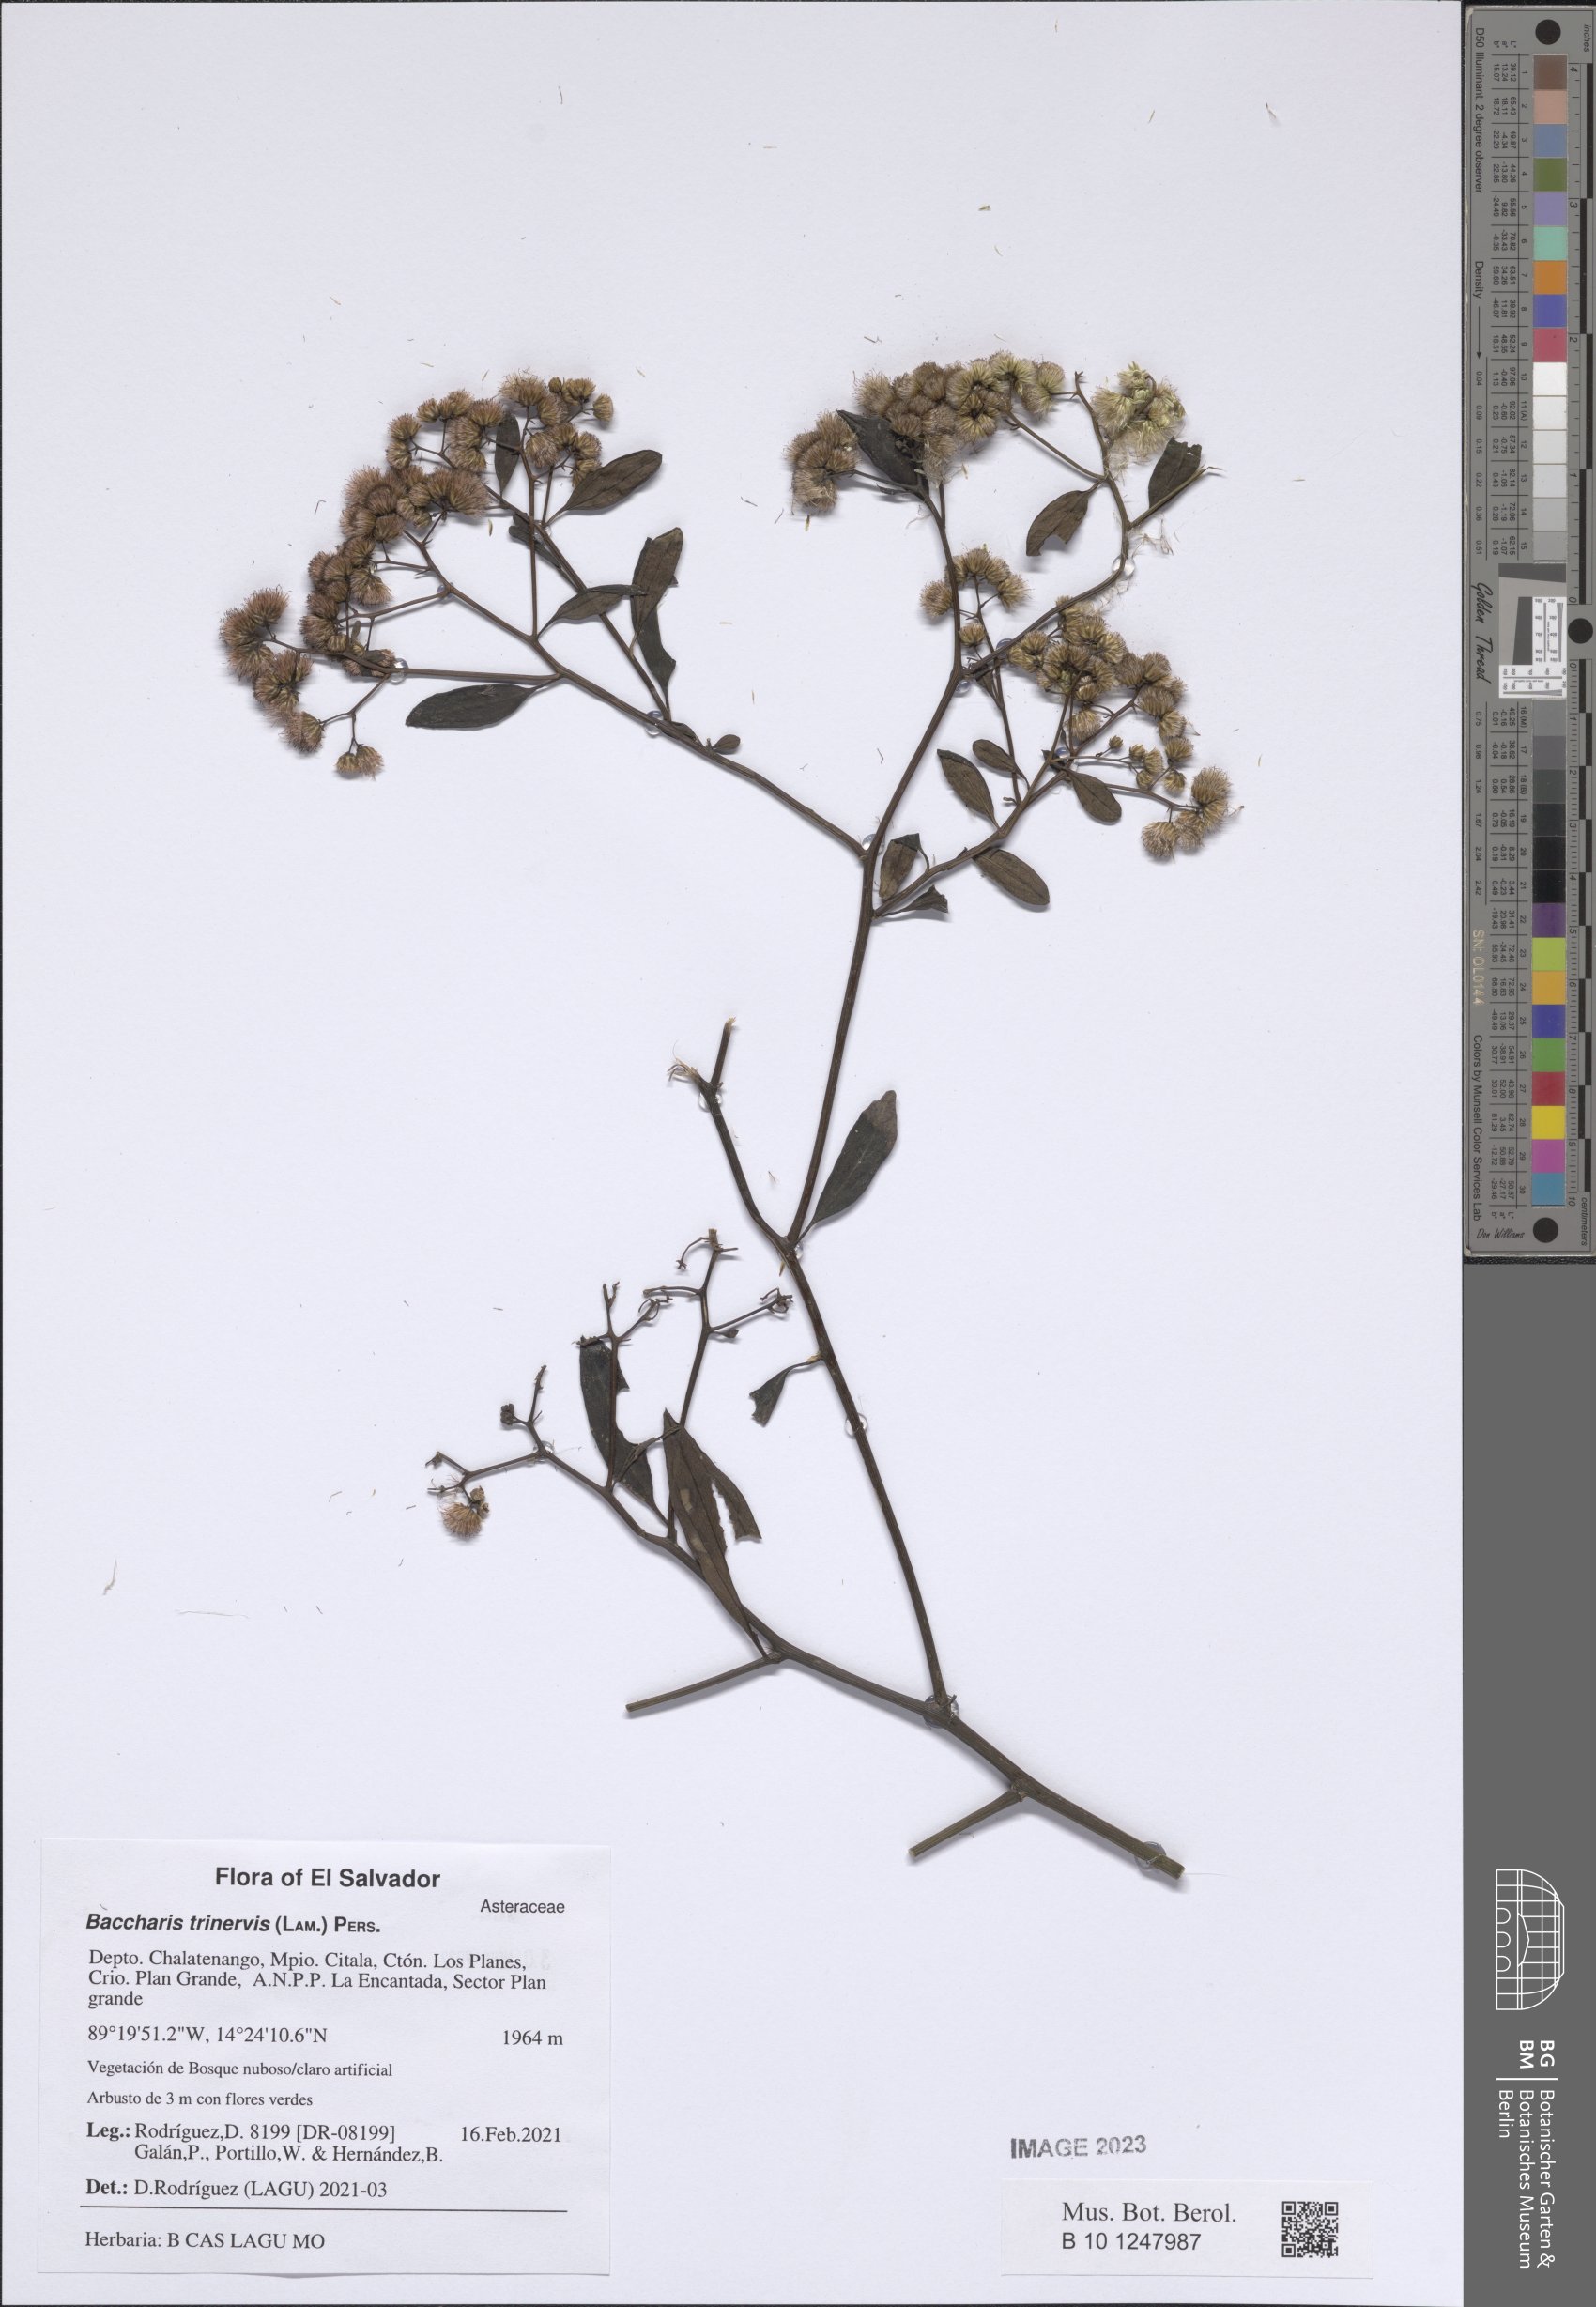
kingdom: Plantae
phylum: Tracheophyta
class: Magnoliopsida
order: Asterales
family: Asteraceae
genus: Baccharis
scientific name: Baccharis trinervis
